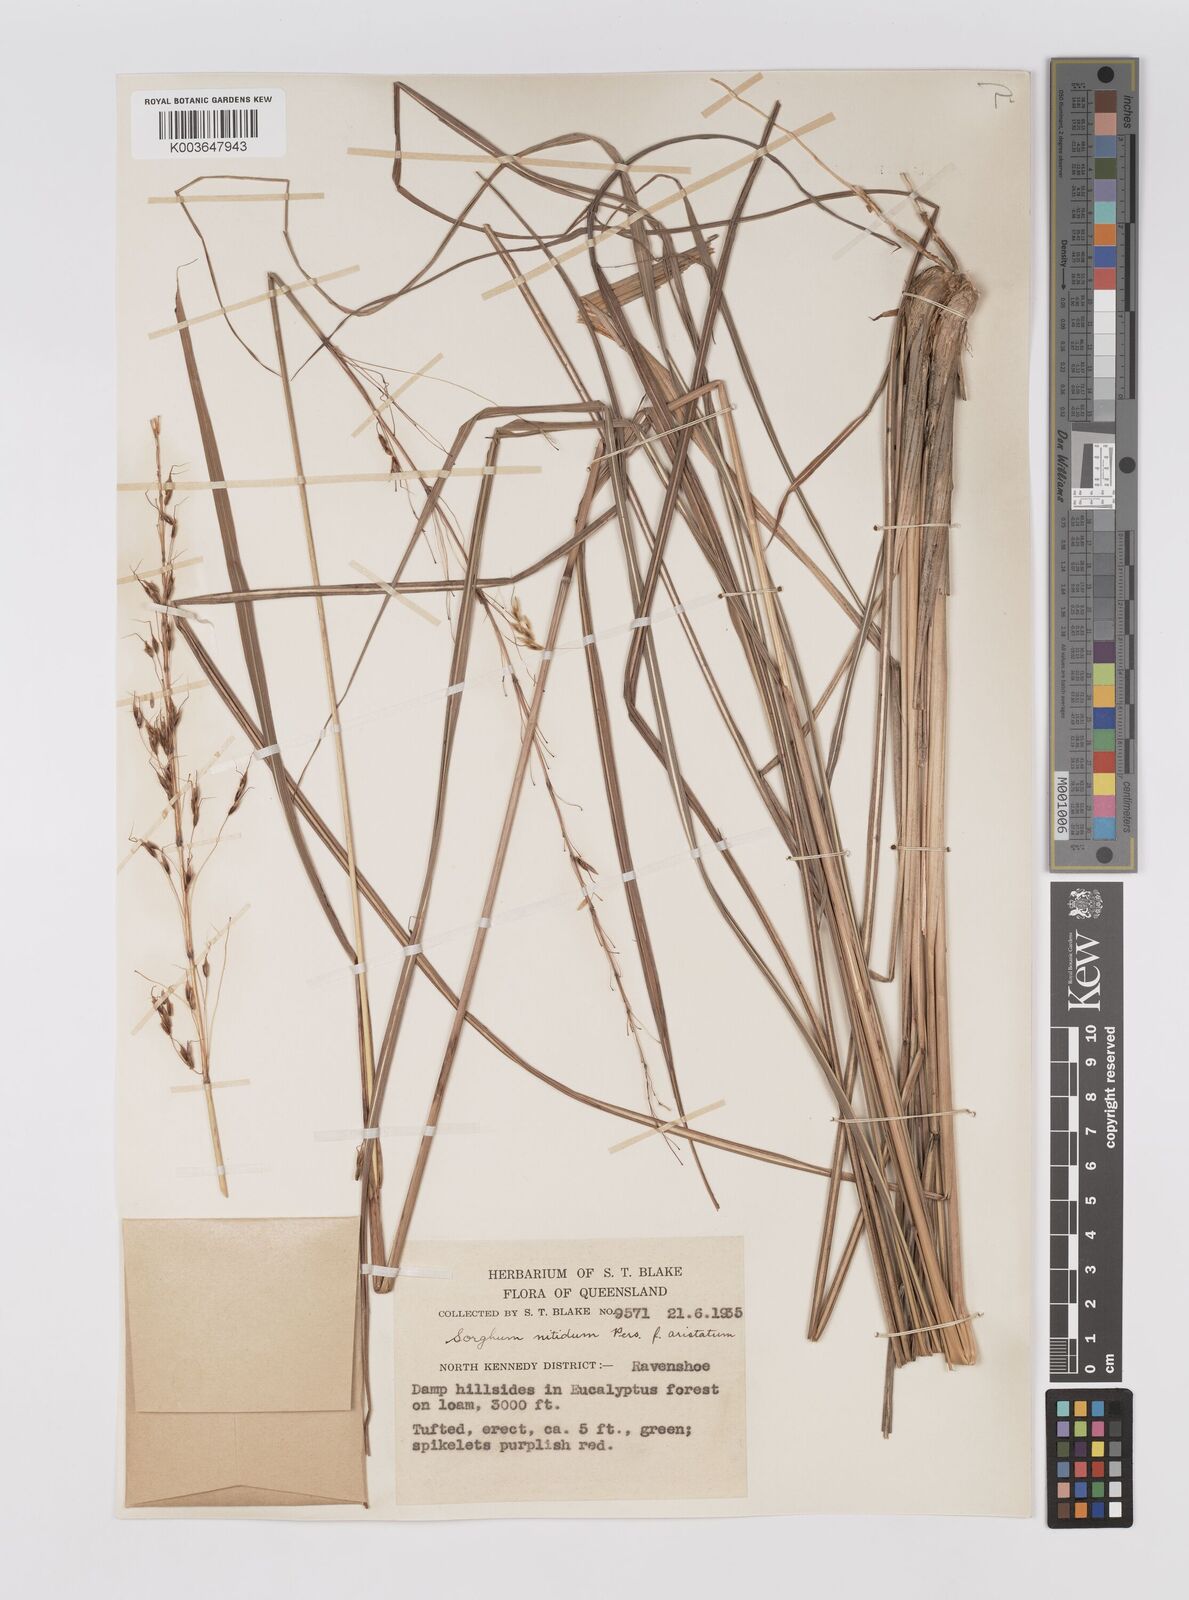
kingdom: Plantae
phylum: Tracheophyta
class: Liliopsida
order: Poales
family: Poaceae
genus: Sorghum
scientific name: Sorghum nitidum
